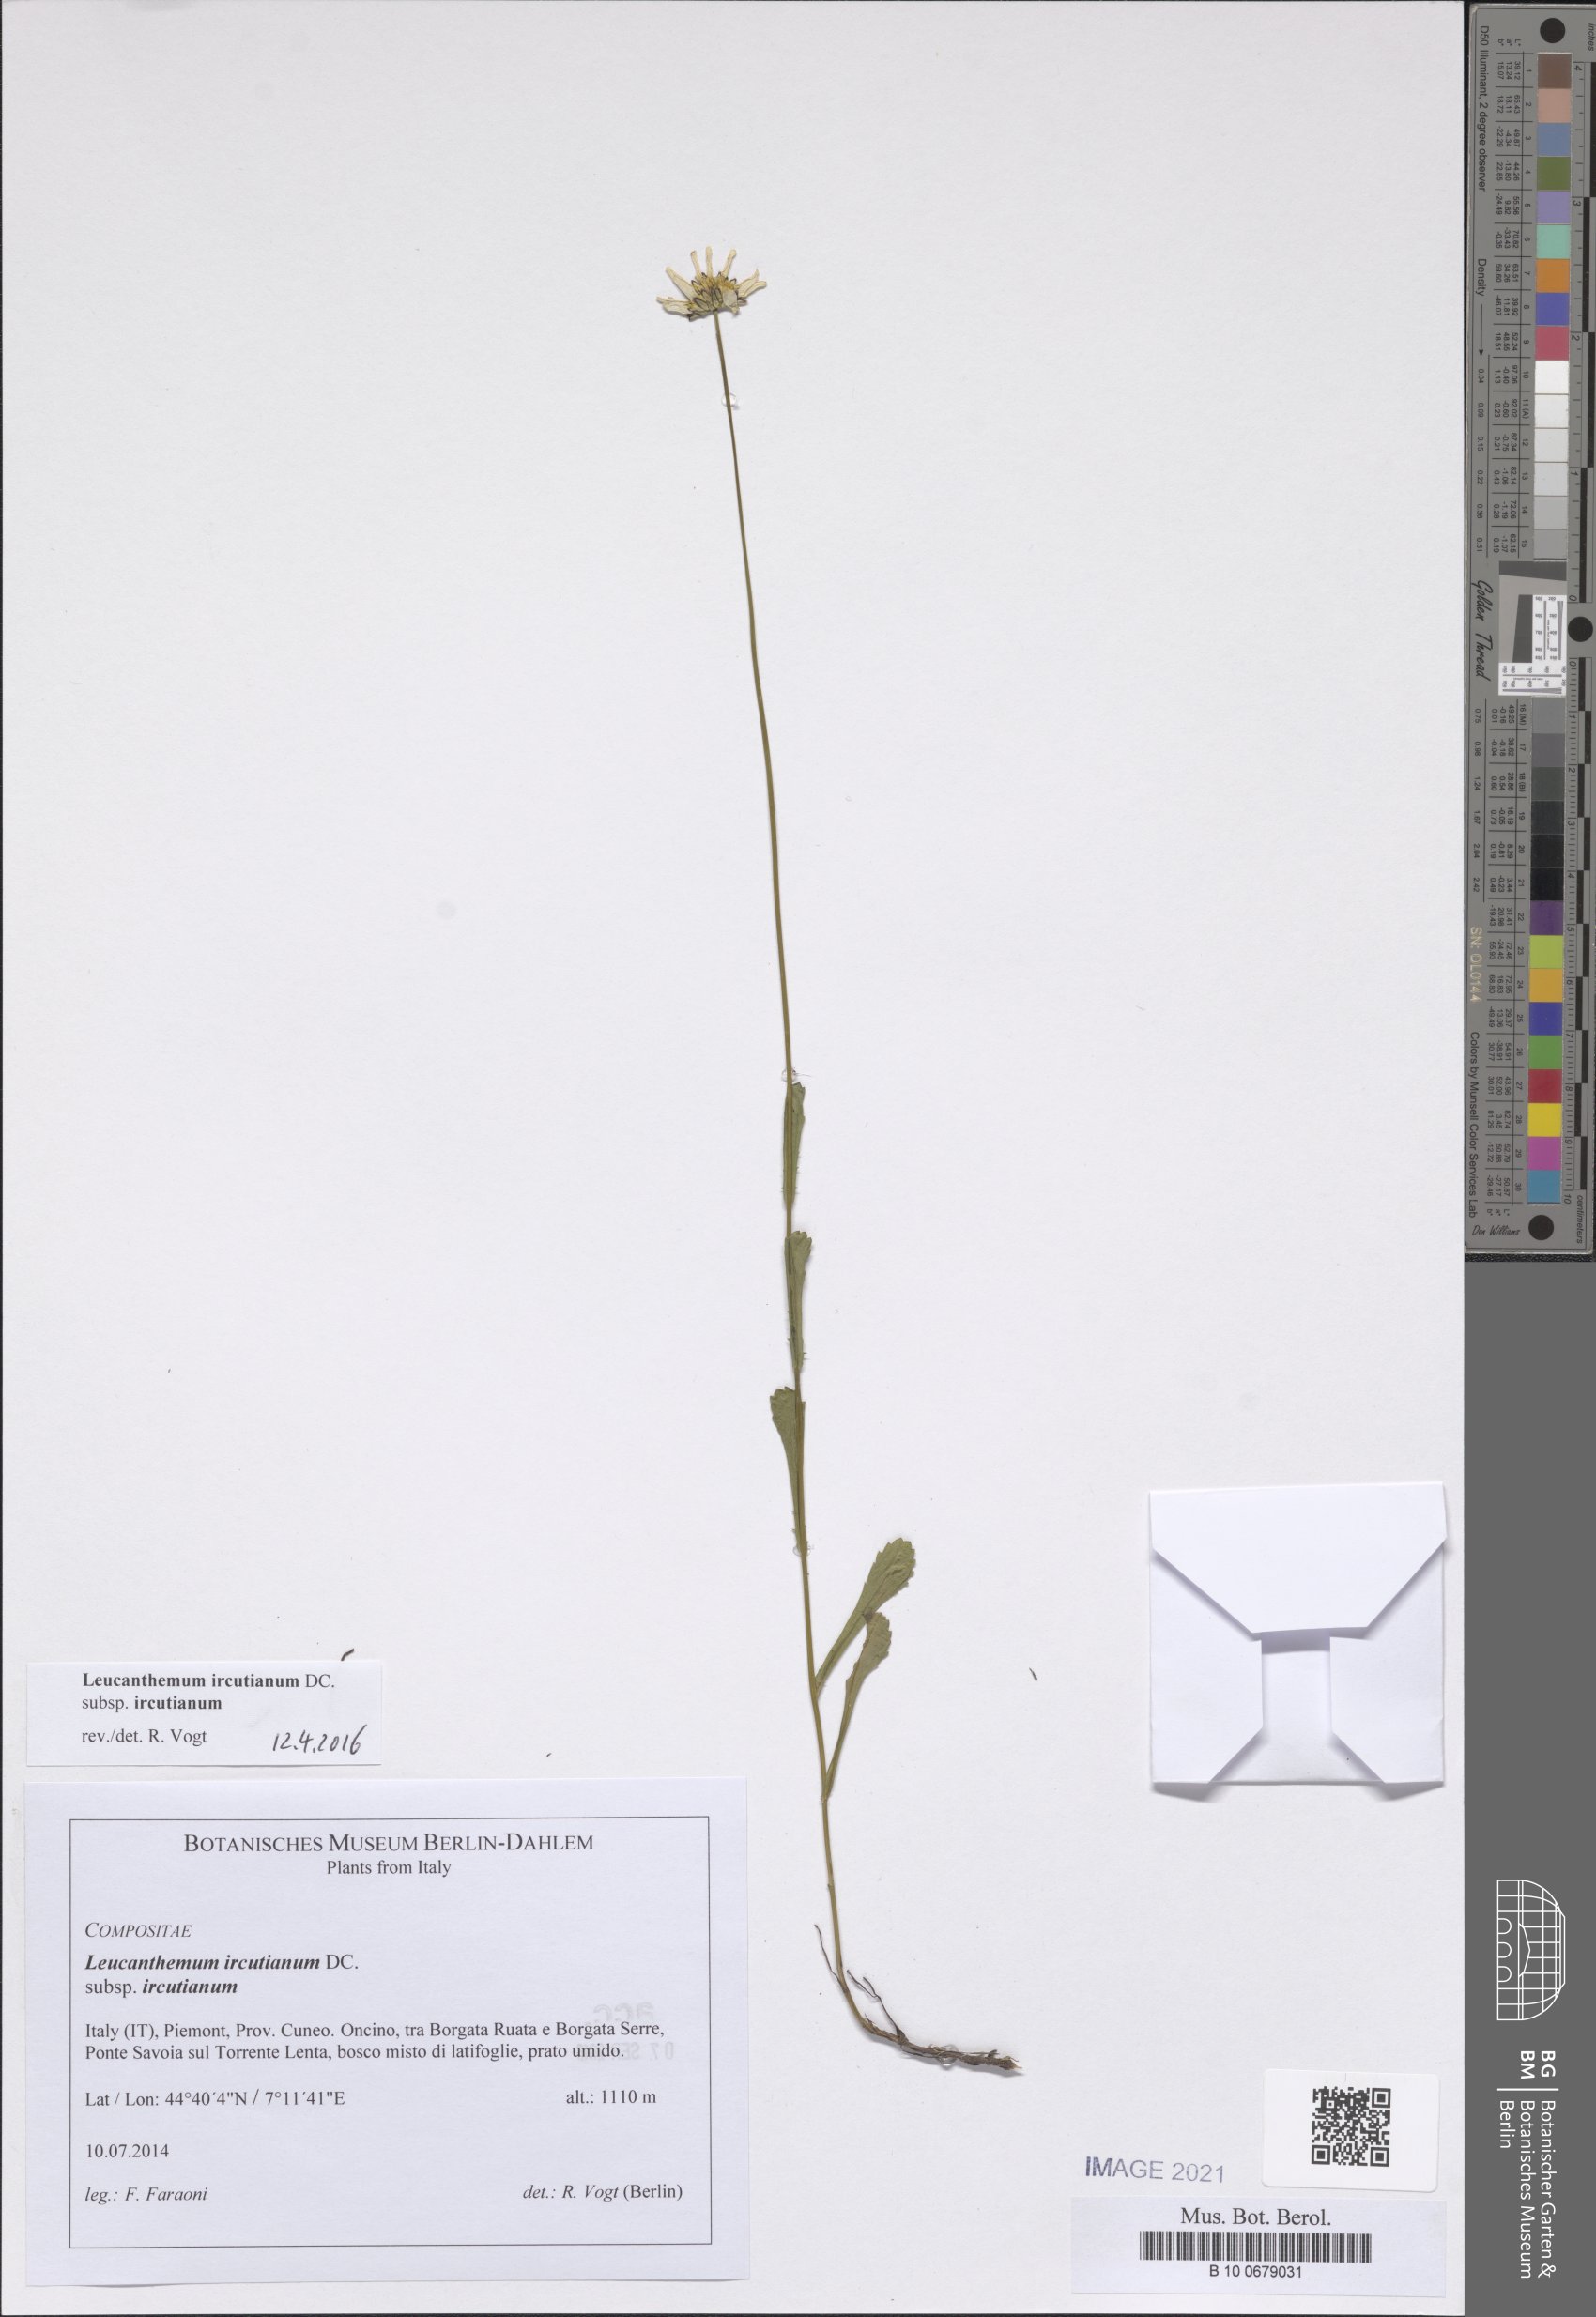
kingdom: Plantae
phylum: Tracheophyta
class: Magnoliopsida
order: Asterales
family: Asteraceae
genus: Leucanthemum
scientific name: Leucanthemum ircutianum
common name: Daisy
